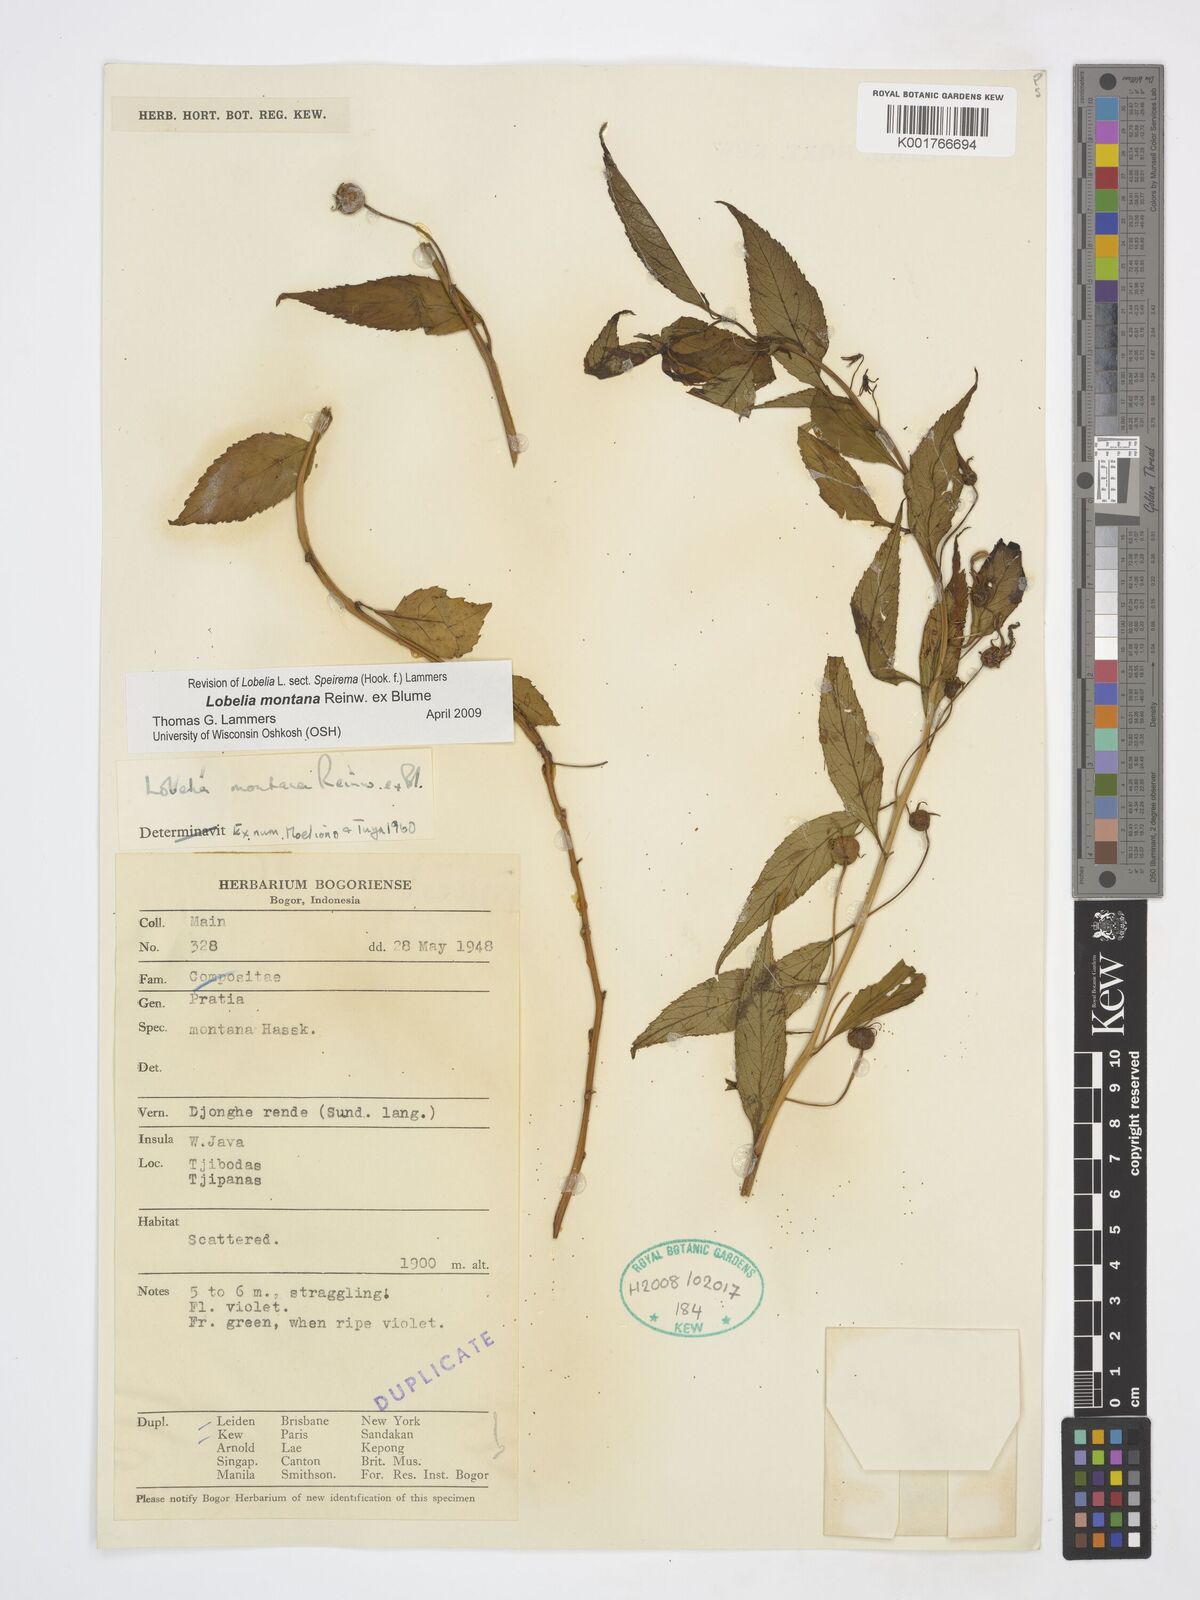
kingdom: Plantae
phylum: Tracheophyta
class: Magnoliopsida
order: Asterales
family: Campanulaceae
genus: Lobelia
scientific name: Lobelia montana
